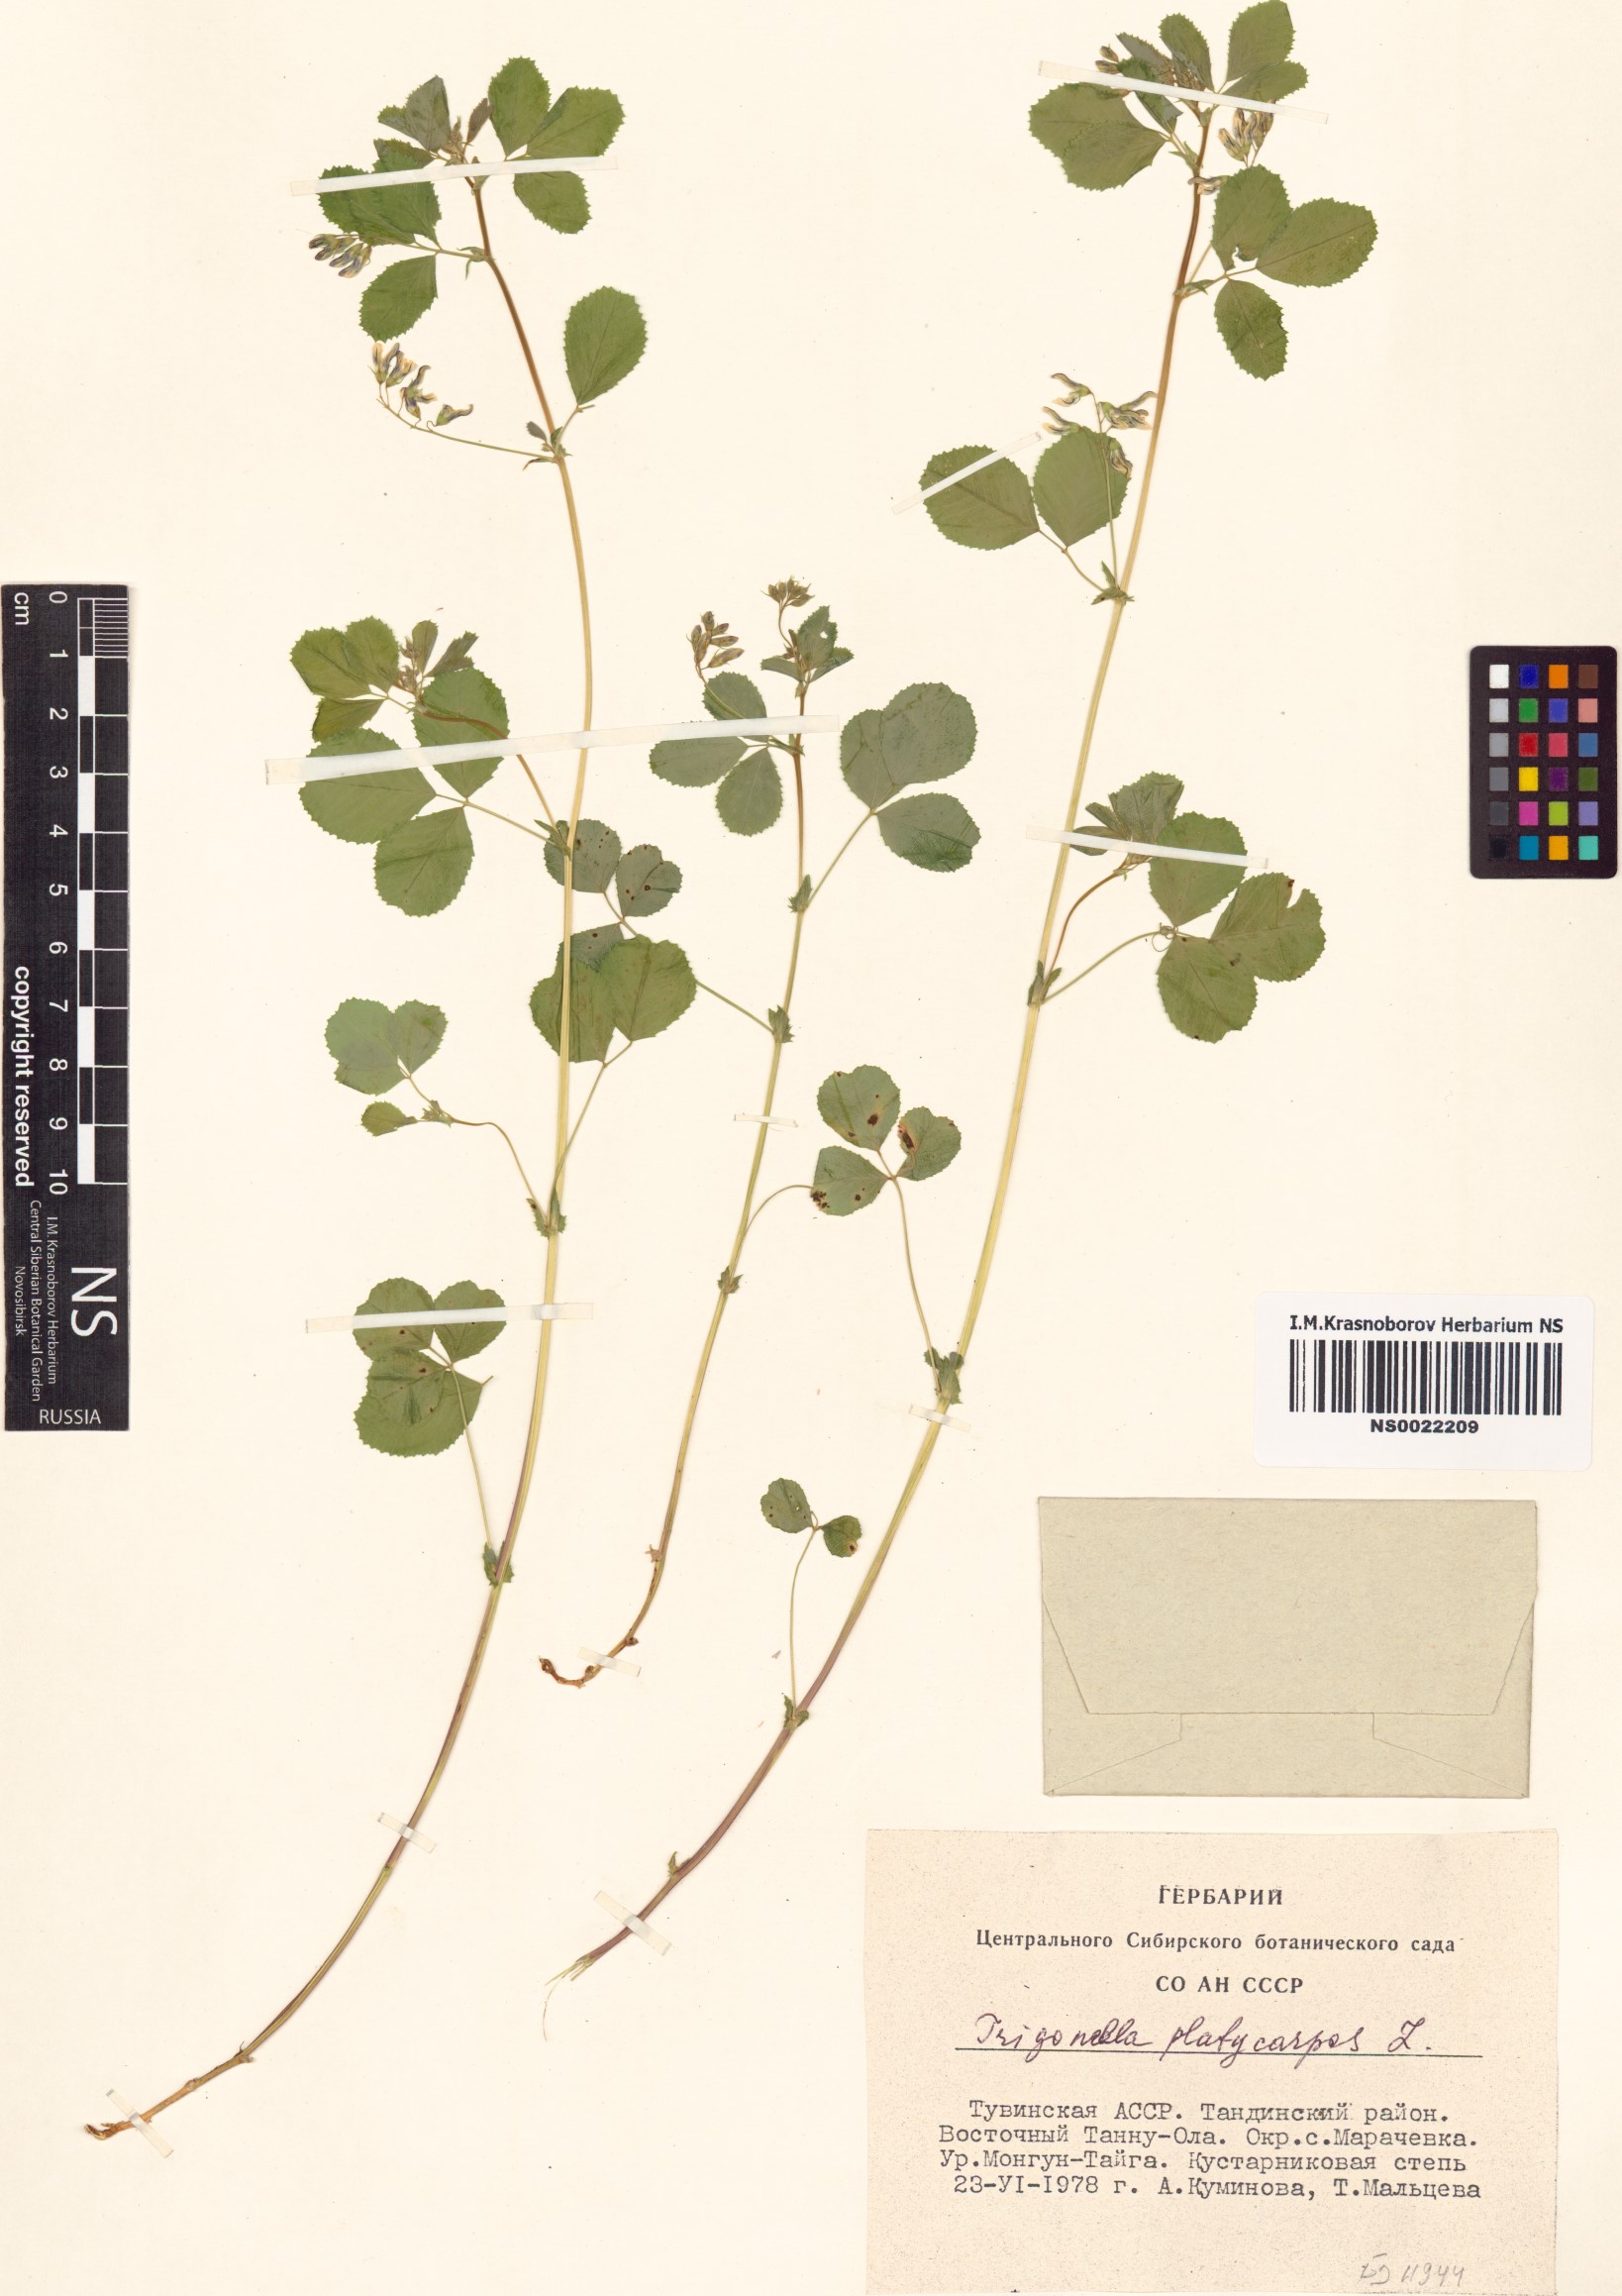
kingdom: Plantae
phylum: Tracheophyta
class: Magnoliopsida
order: Fabales
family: Fabaceae
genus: Medicago
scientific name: Medicago platycarpos
